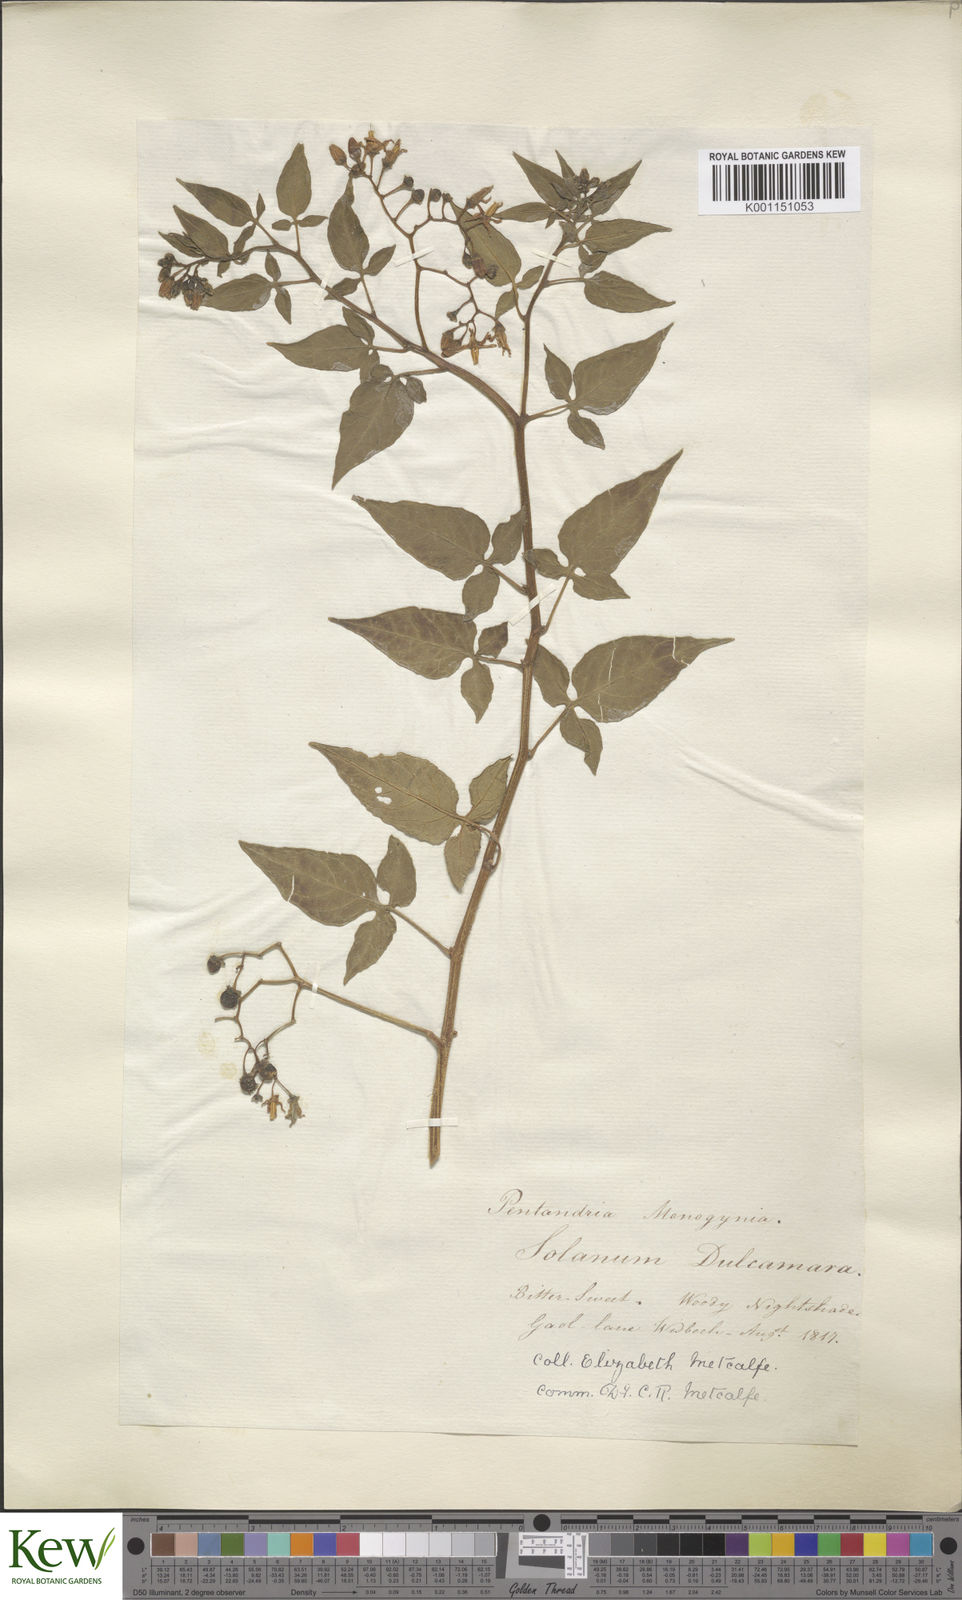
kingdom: Plantae
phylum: Tracheophyta
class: Magnoliopsida
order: Solanales
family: Solanaceae
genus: Solanum
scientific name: Solanum dulcamara
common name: Climbing nightshade
